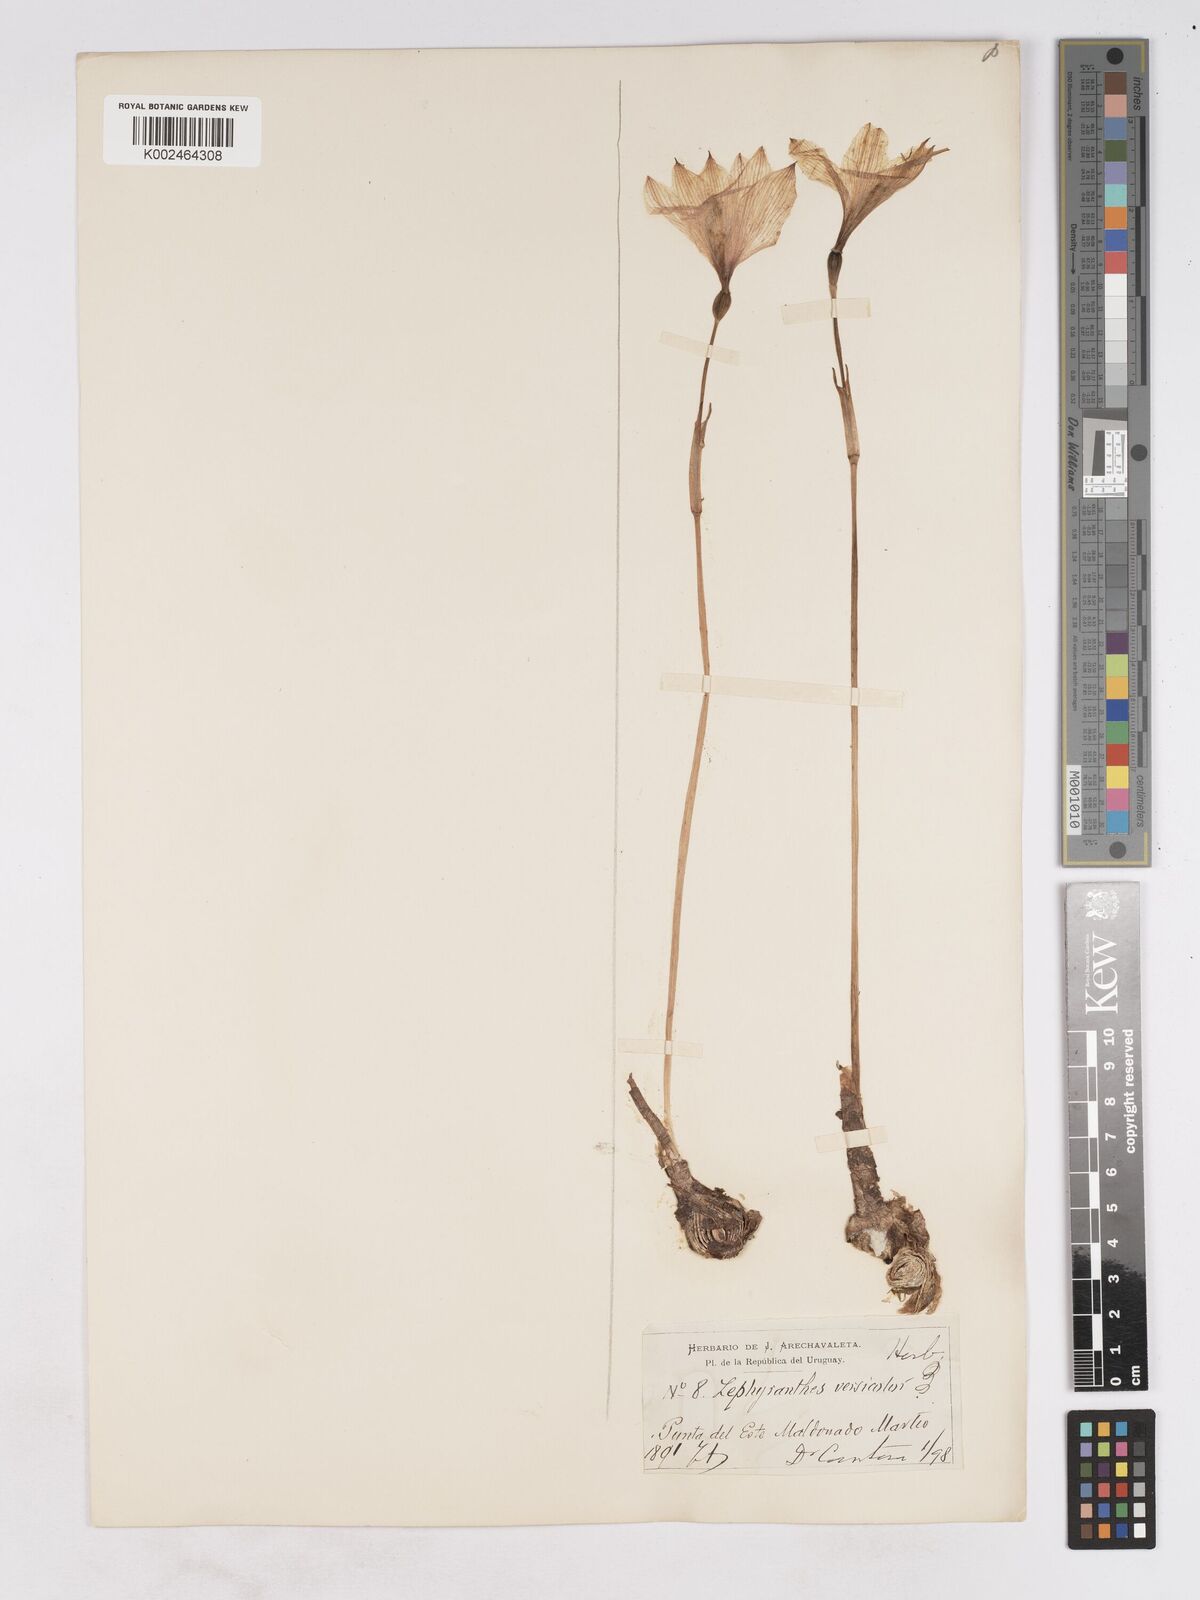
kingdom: Plantae
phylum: Tracheophyta
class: Liliopsida
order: Asparagales
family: Amaryllidaceae
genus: Zephyranthes
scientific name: Zephyranthes versicolor
